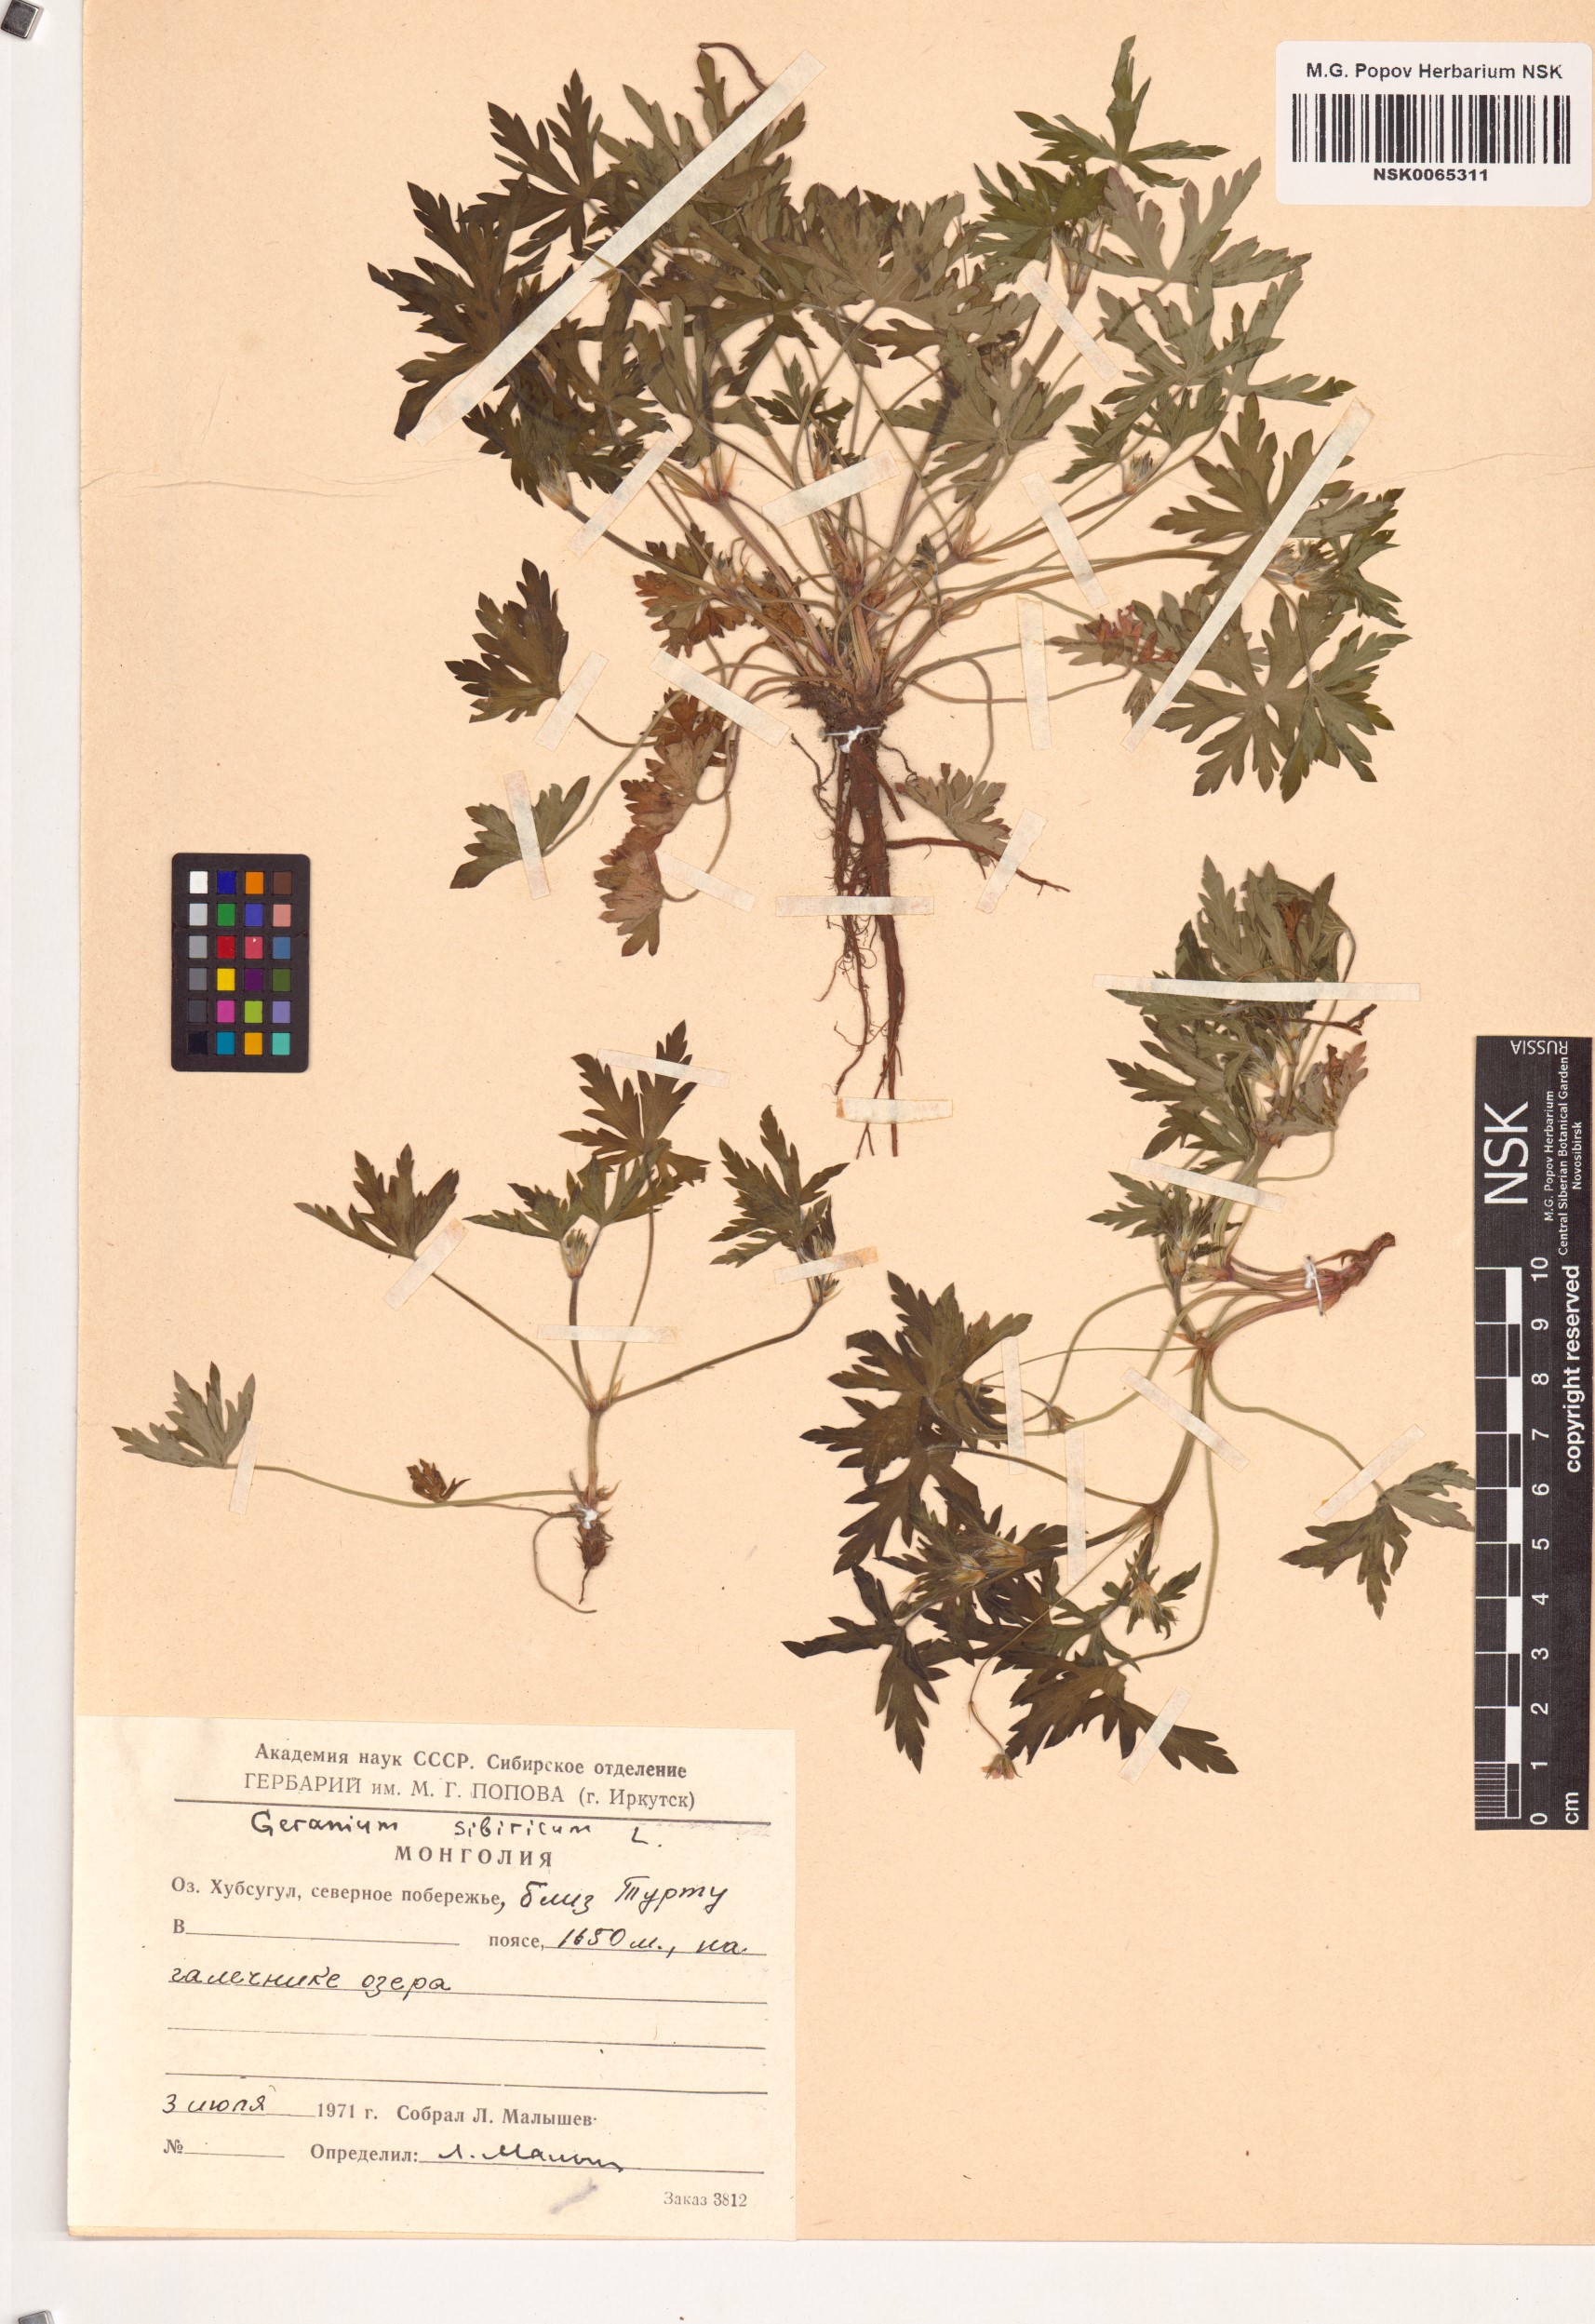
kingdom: Plantae
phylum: Tracheophyta
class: Magnoliopsida
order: Geraniales
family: Geraniaceae
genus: Geranium
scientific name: Geranium sibiricum
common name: Siberian crane's-bill
